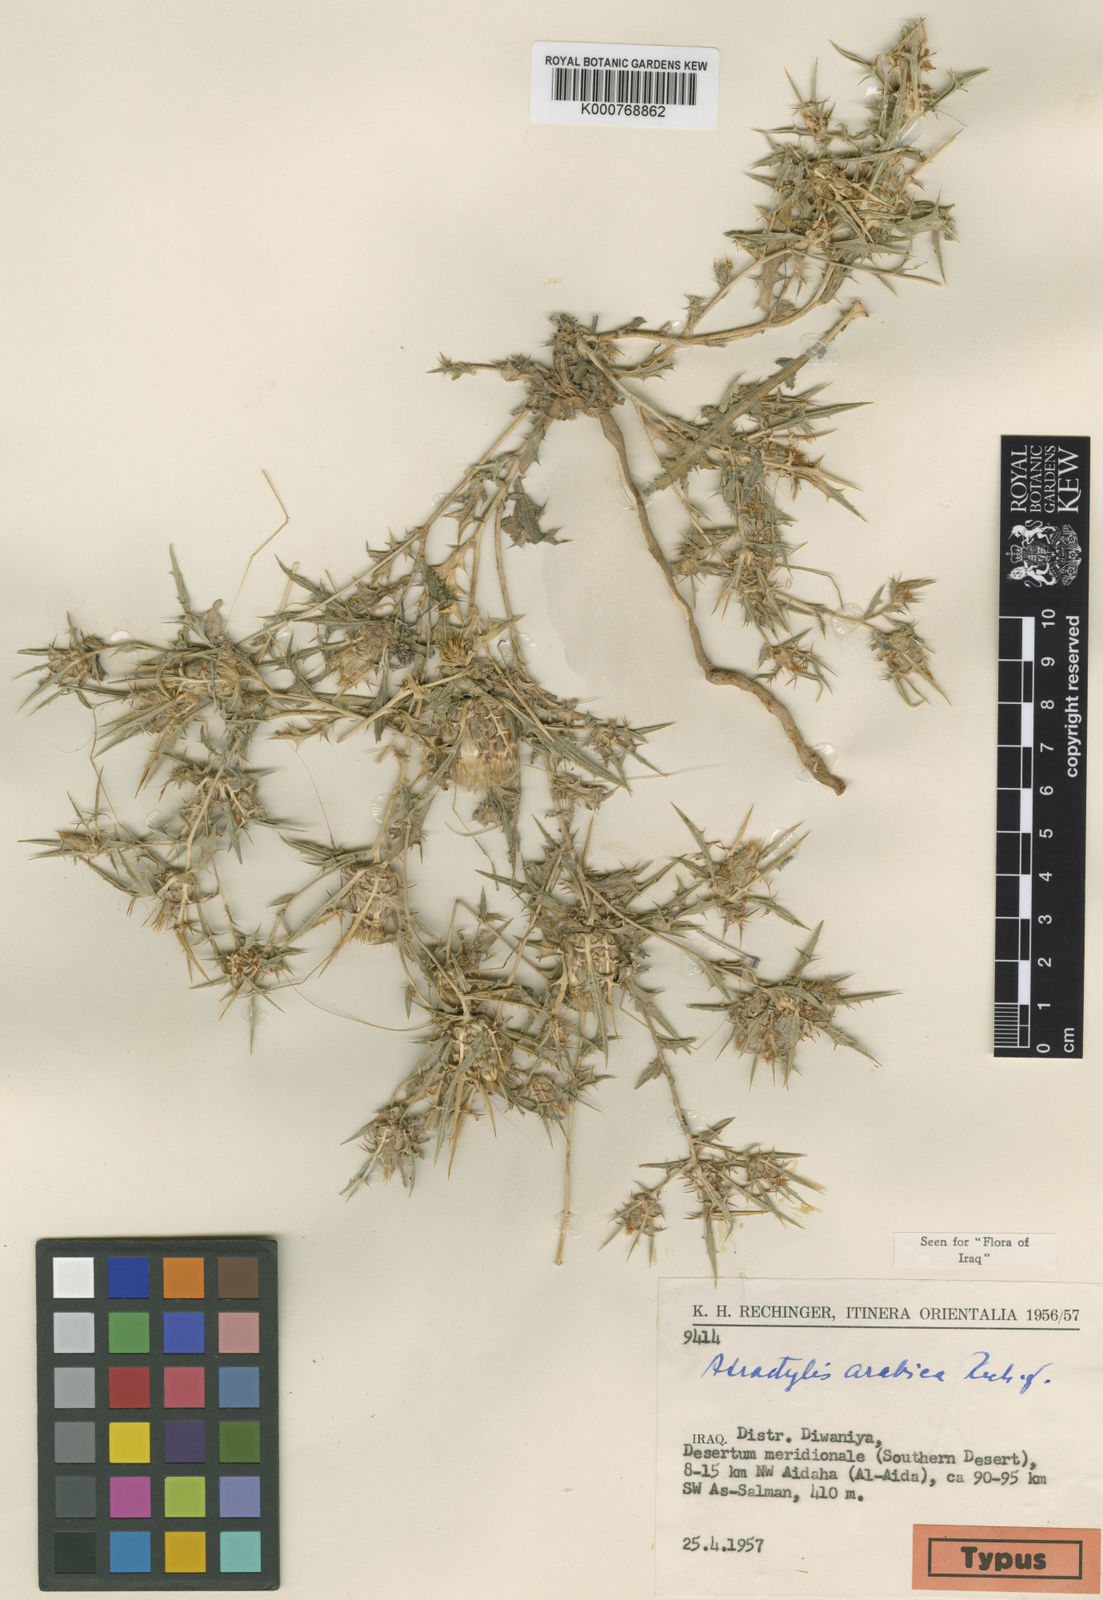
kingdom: Plantae
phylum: Tracheophyta
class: Magnoliopsida
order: Asterales
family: Asteraceae
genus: Atractylis
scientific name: Atractylis arabica
